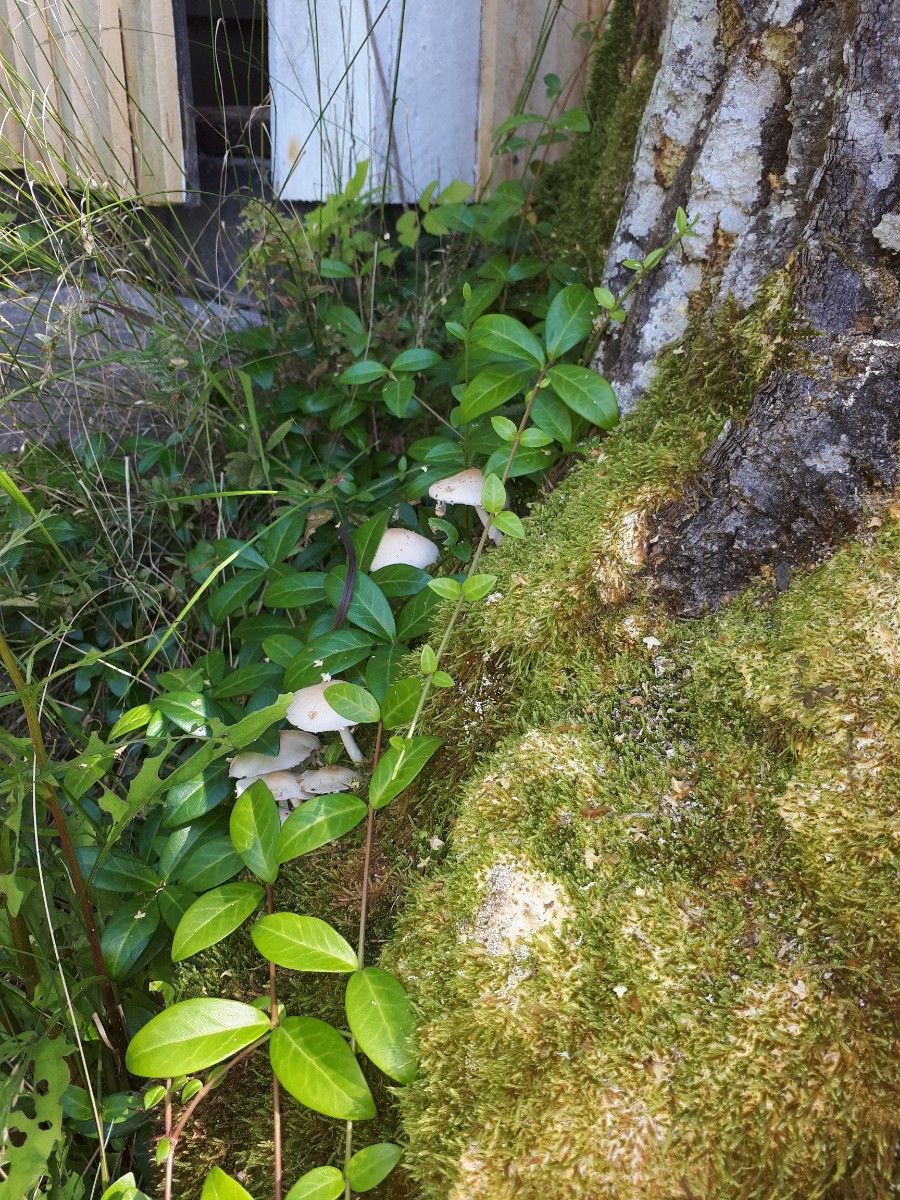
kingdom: Fungi
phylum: Basidiomycota
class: Agaricomycetes
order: Agaricales
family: Psathyrellaceae
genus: Candolleomyces
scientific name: Candolleomyces candolleanus
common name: Candolles mørkhat
